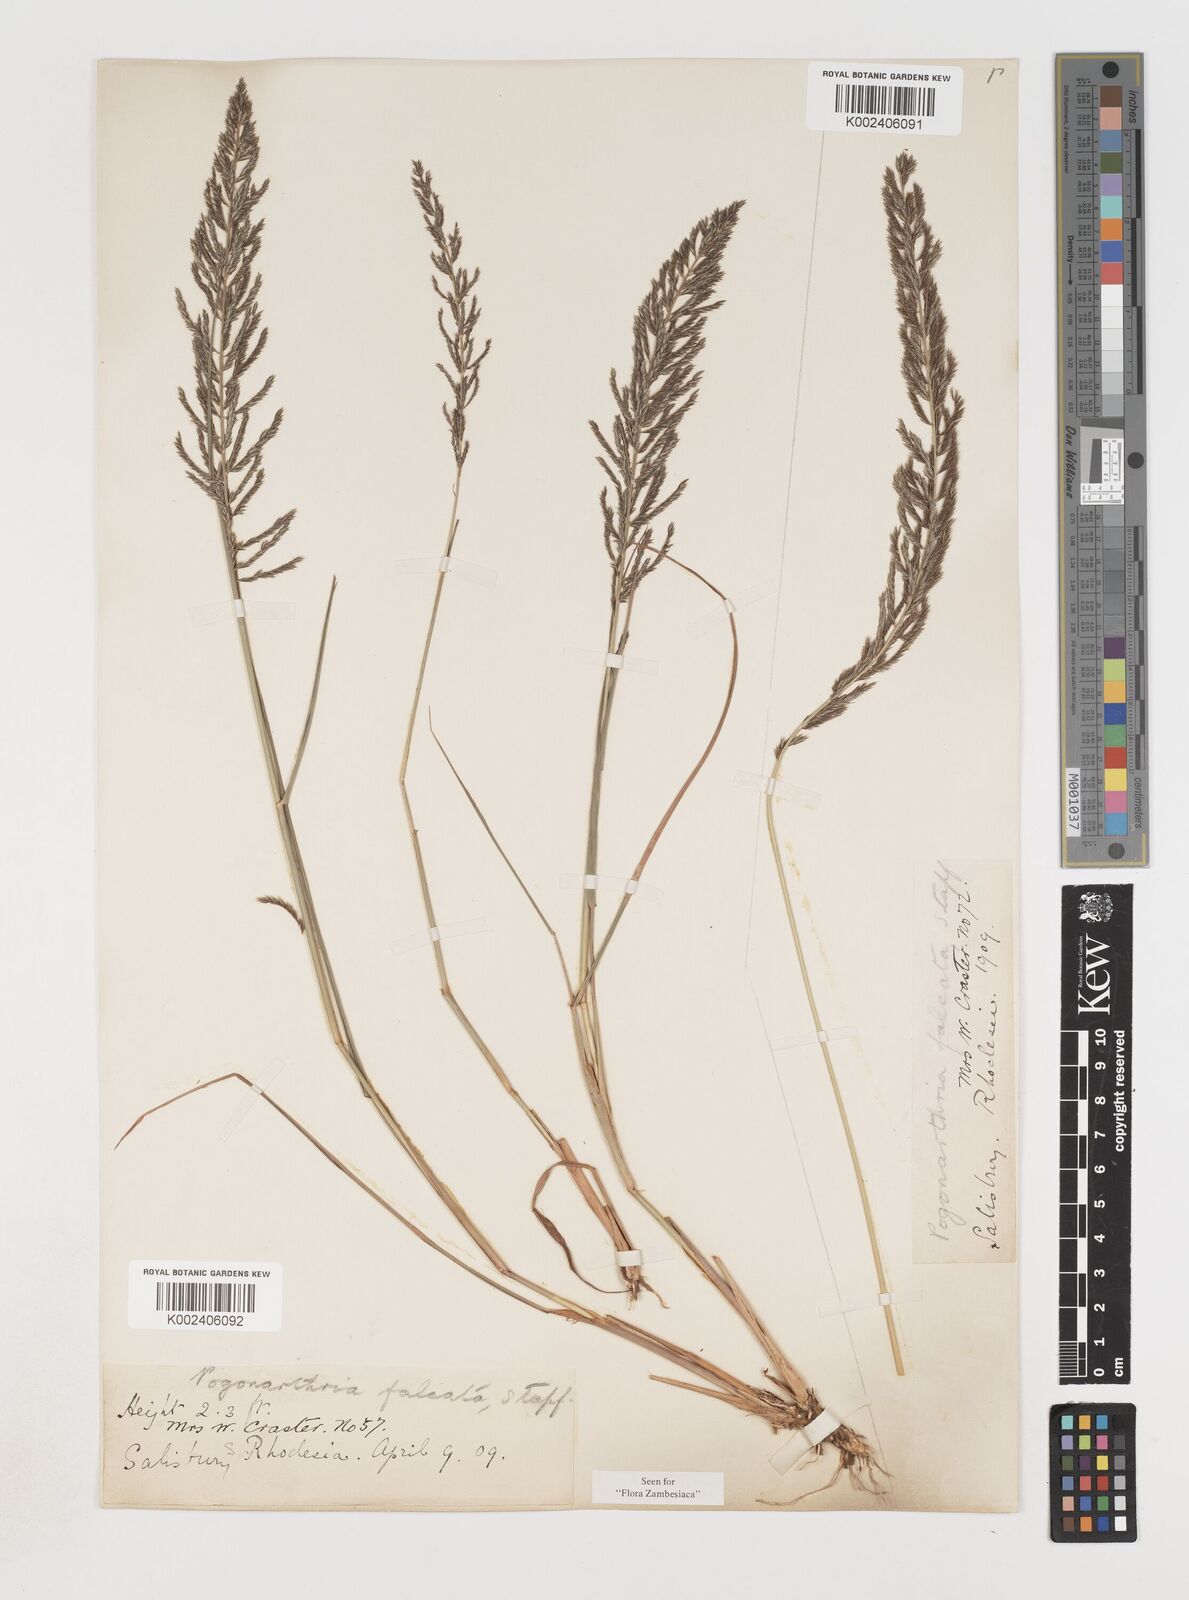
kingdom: Plantae
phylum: Tracheophyta
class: Liliopsida
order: Poales
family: Poaceae
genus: Pogonarthria
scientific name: Pogonarthria squarrosa
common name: Grass
